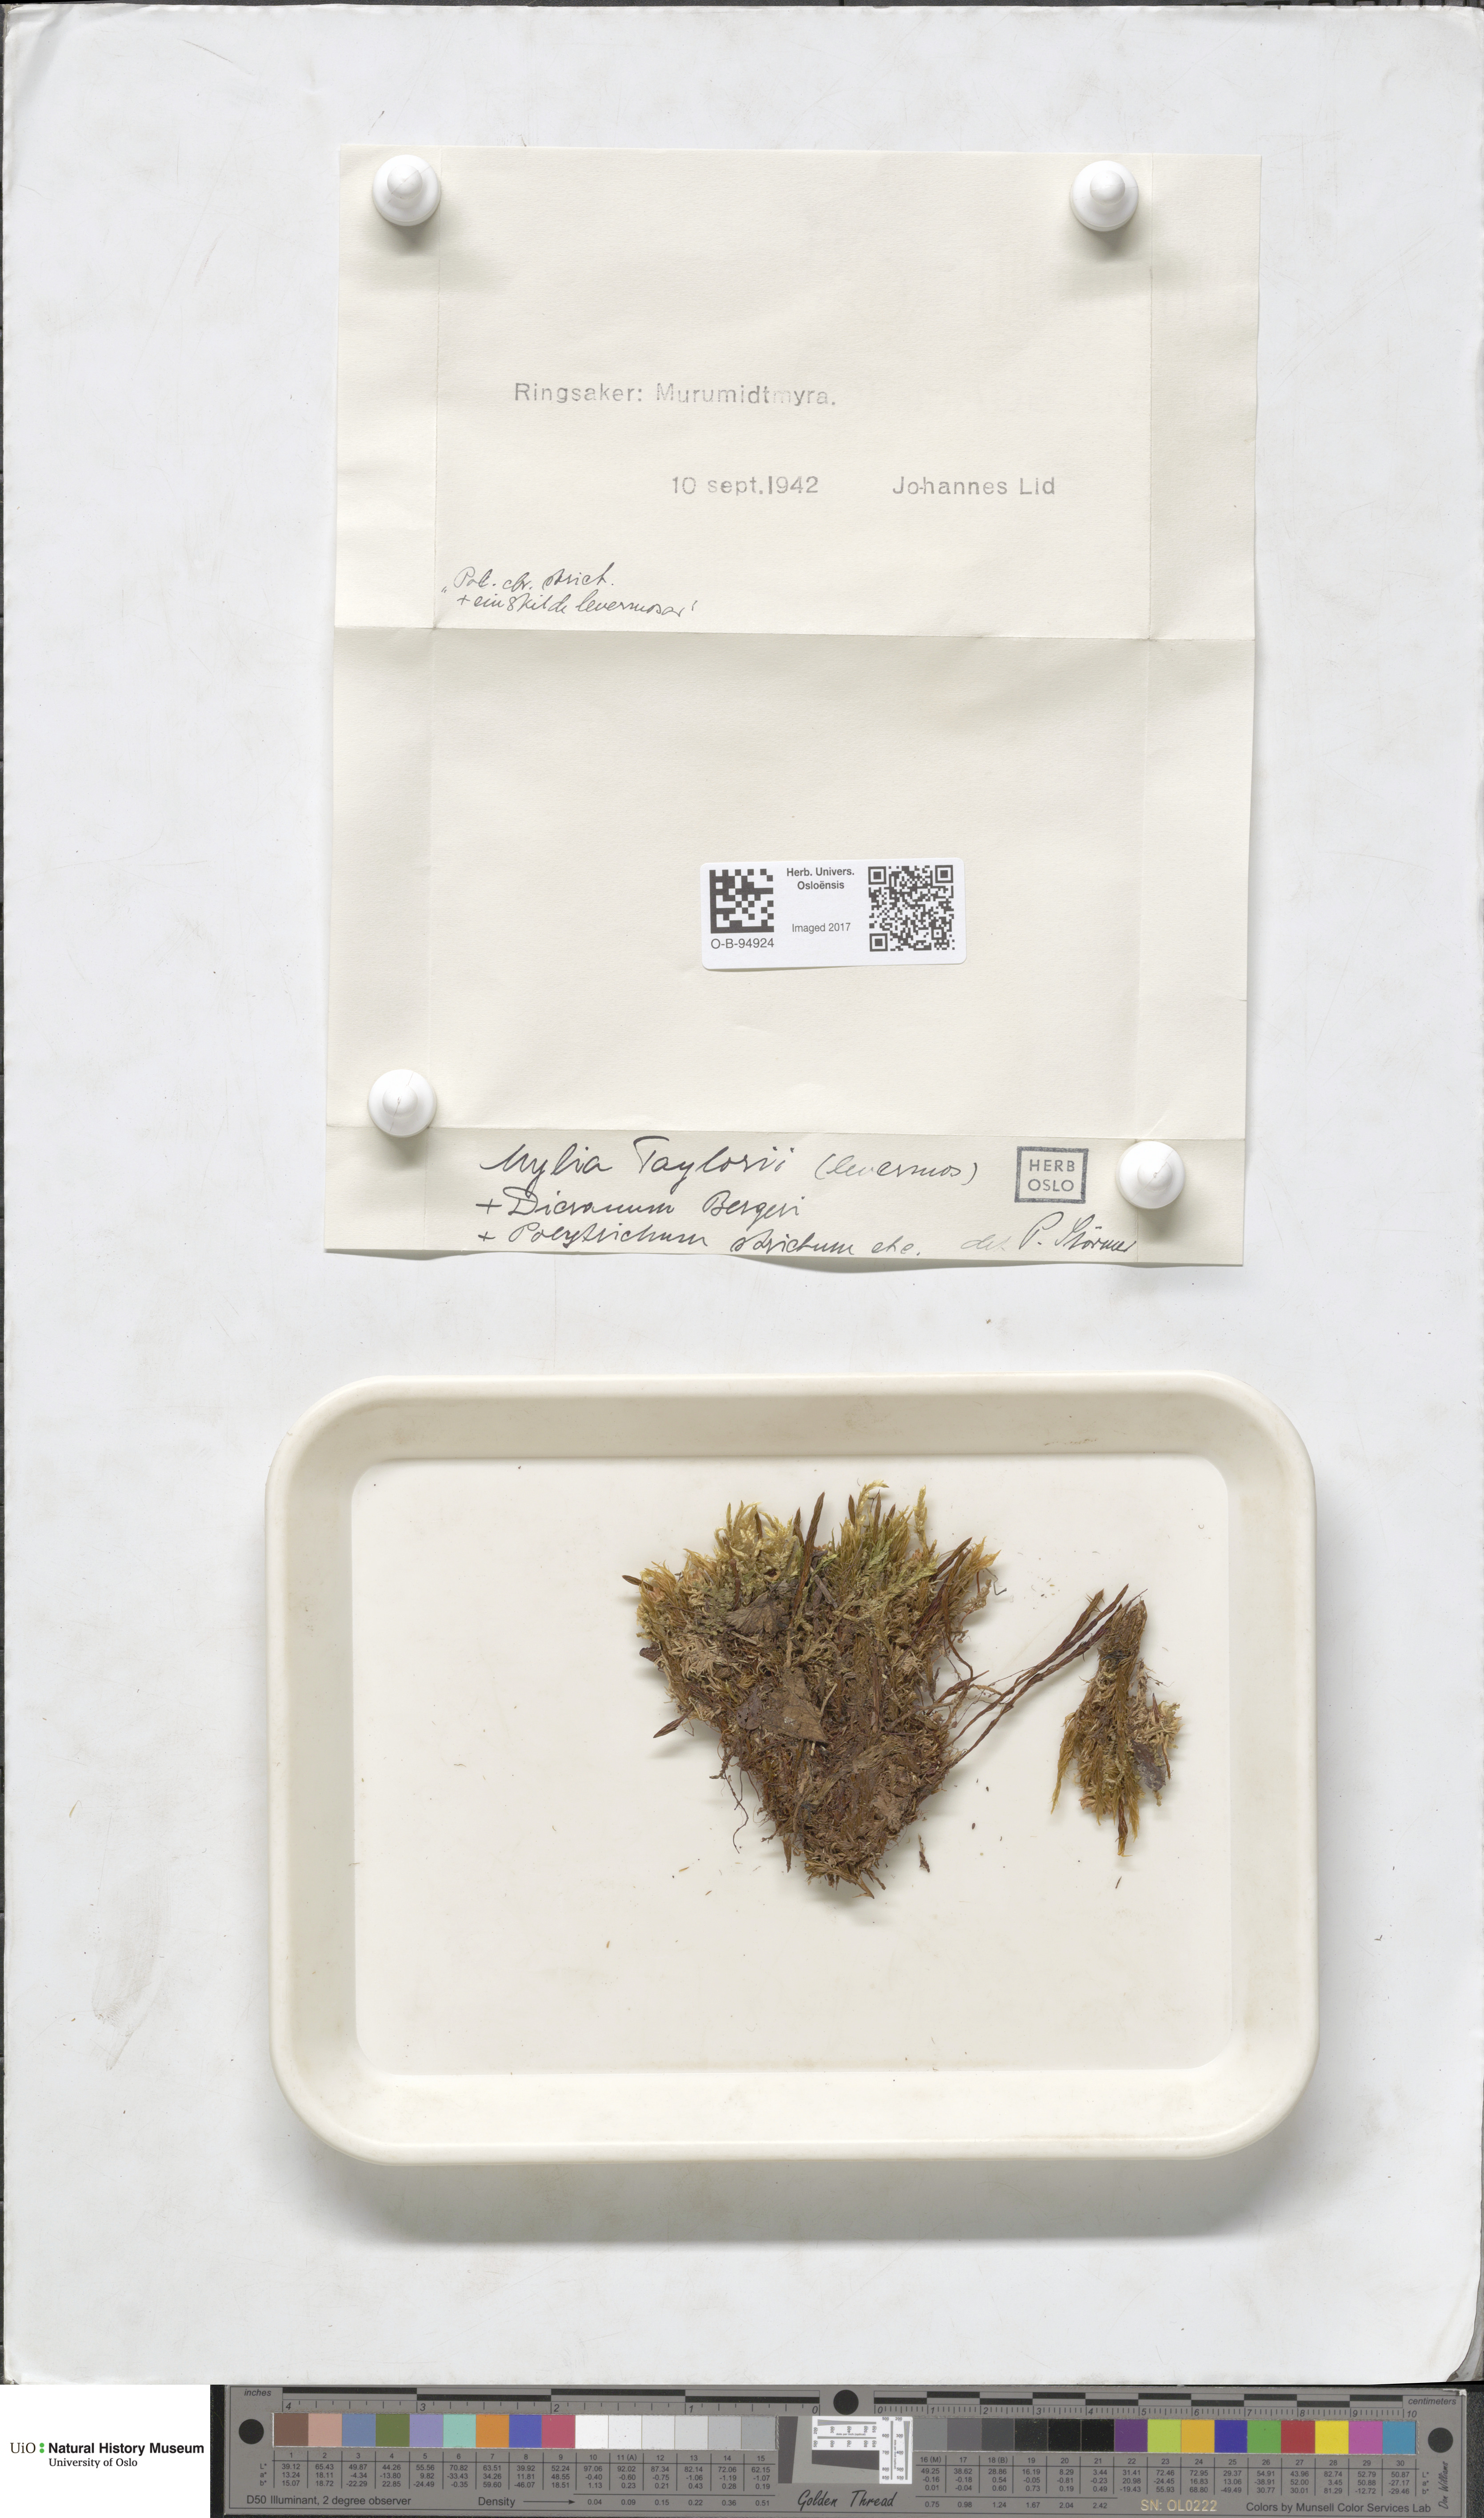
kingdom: Plantae
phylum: Marchantiophyta
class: Jungermanniopsida
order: Jungermanniales
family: Myliaceae
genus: Mylia
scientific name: Mylia taylorii
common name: Taylor s flapwort
